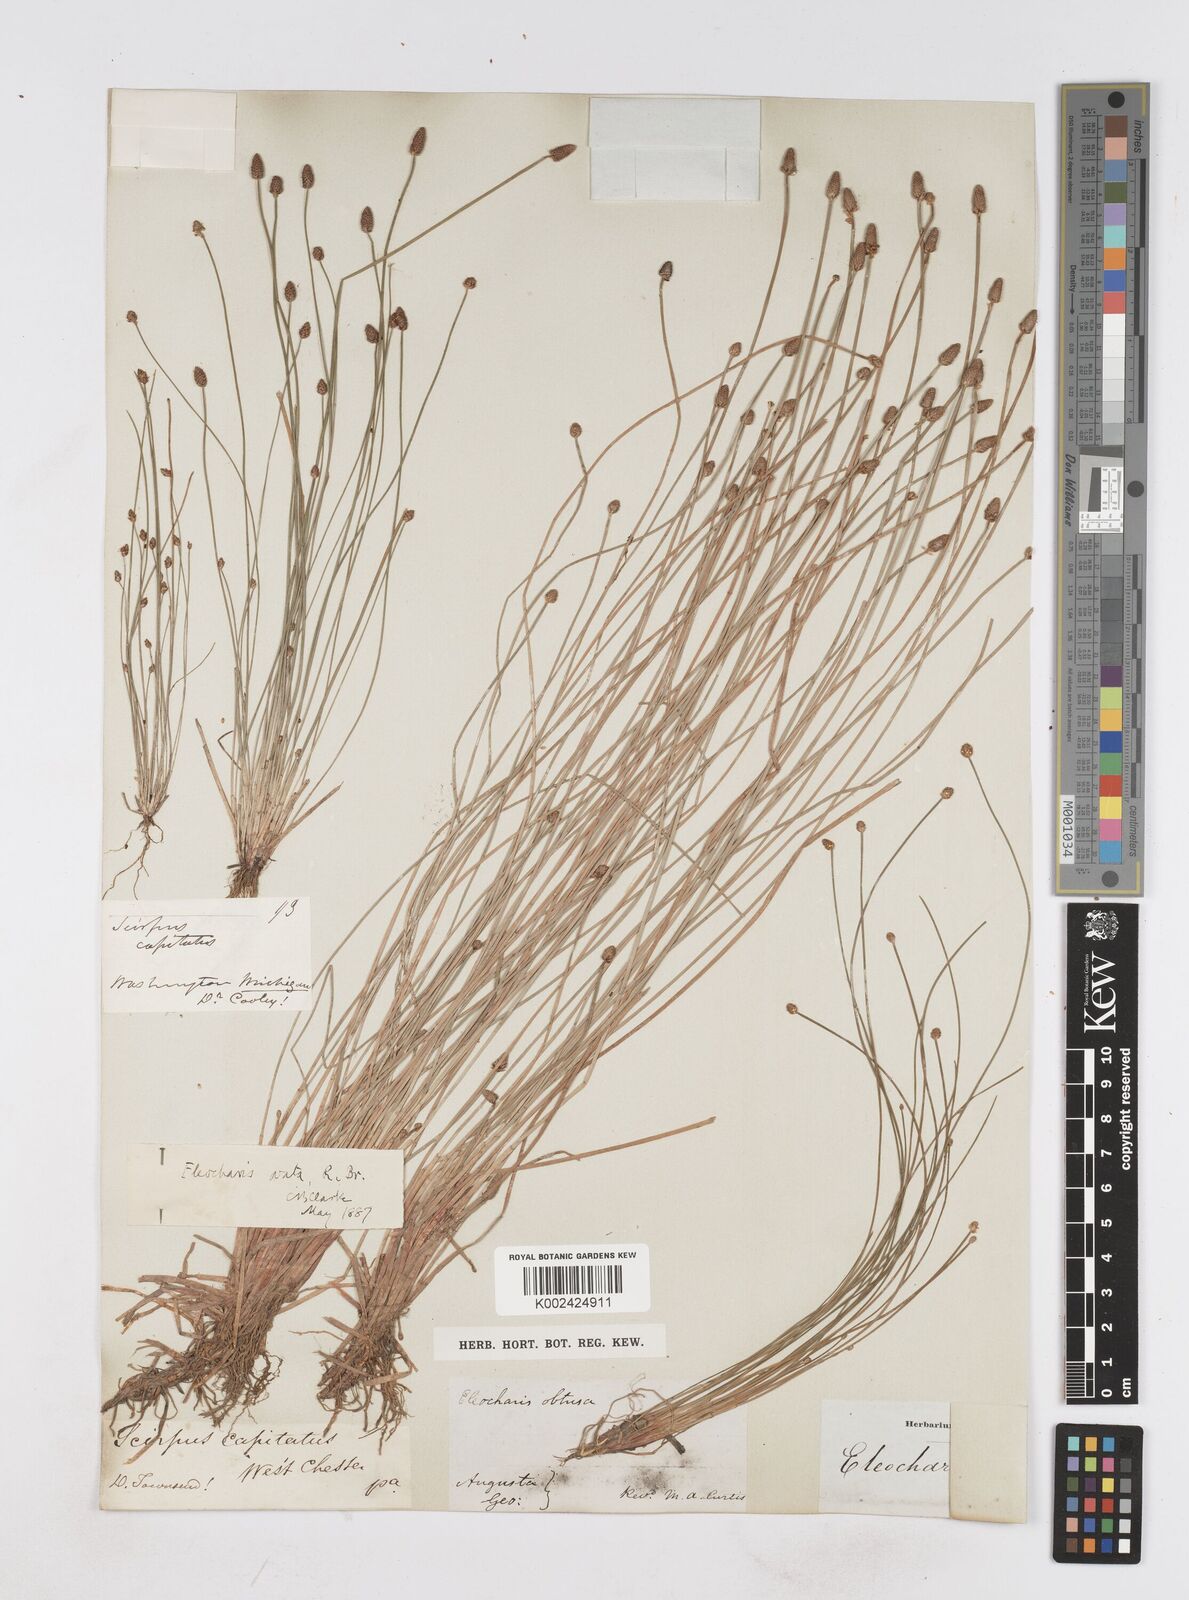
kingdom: Plantae
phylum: Tracheophyta
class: Liliopsida
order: Poales
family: Cyperaceae
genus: Eleocharis
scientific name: Eleocharis ovata
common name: Oval spike-rush
